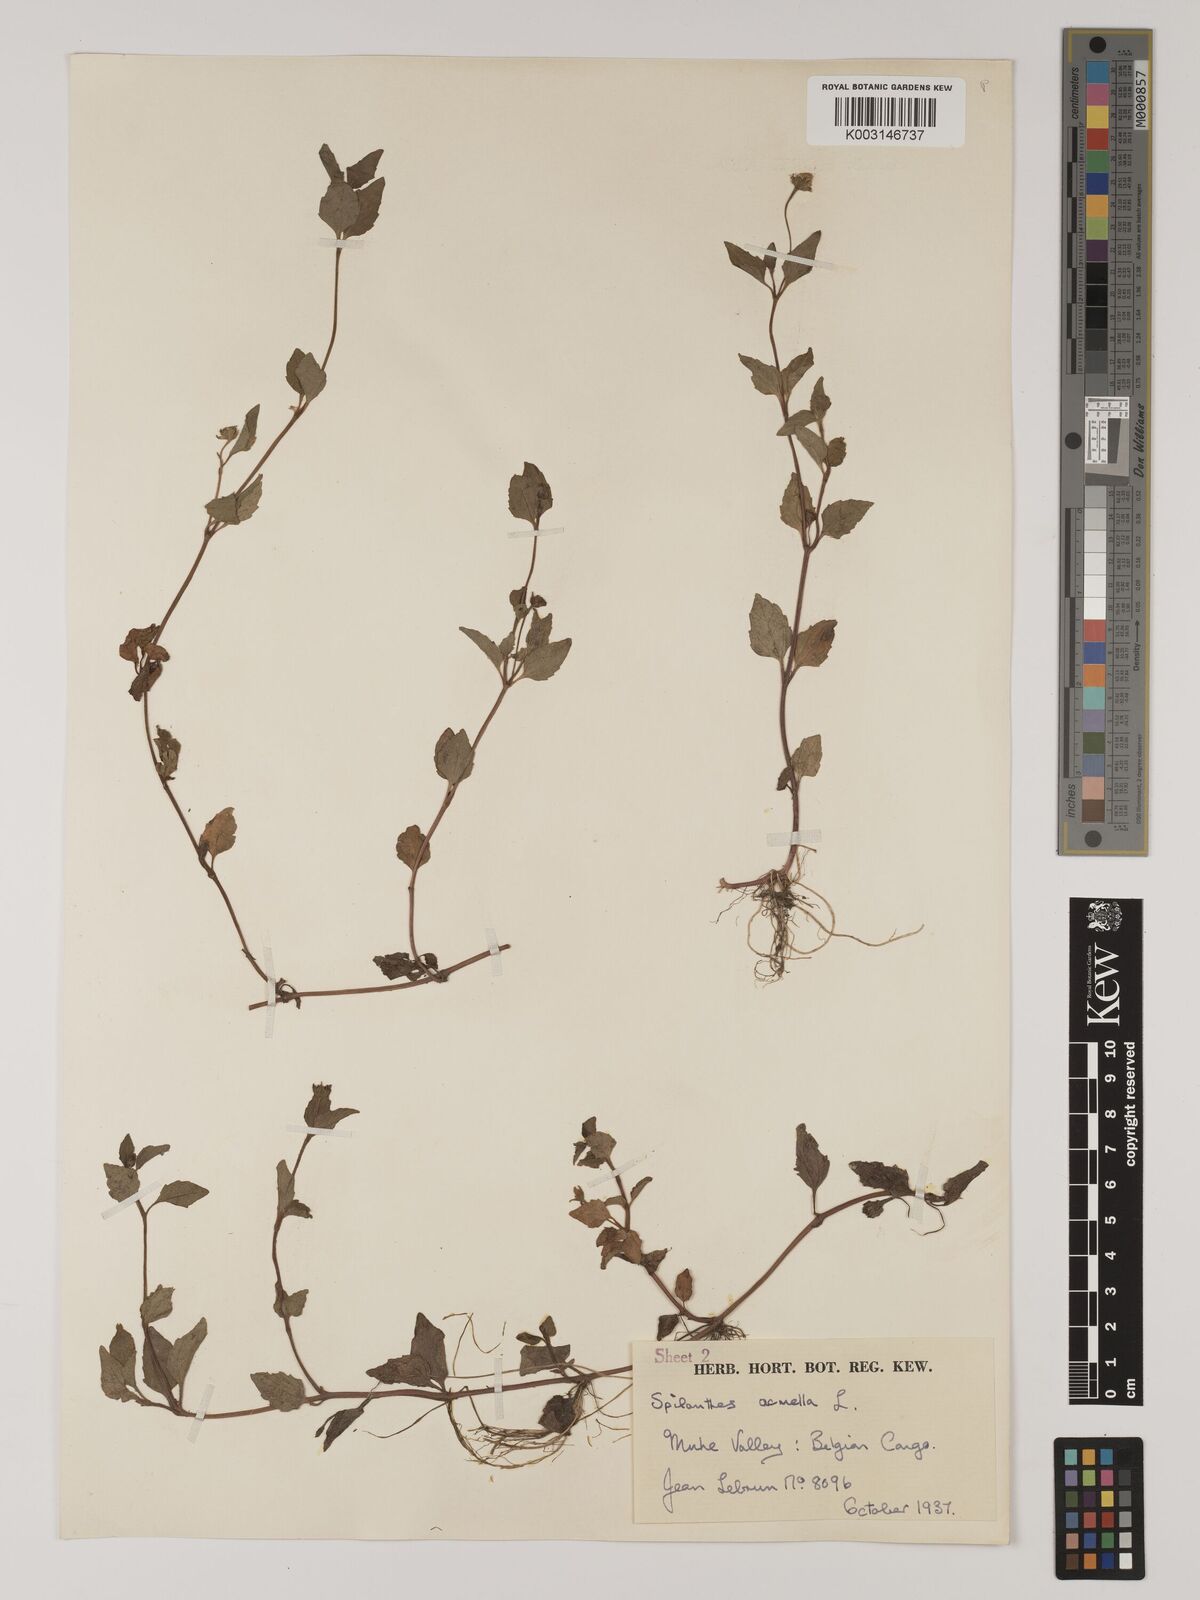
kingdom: Plantae
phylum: Tracheophyta
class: Magnoliopsida
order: Asterales
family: Asteraceae
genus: Blainvillea
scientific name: Blainvillea acmella
